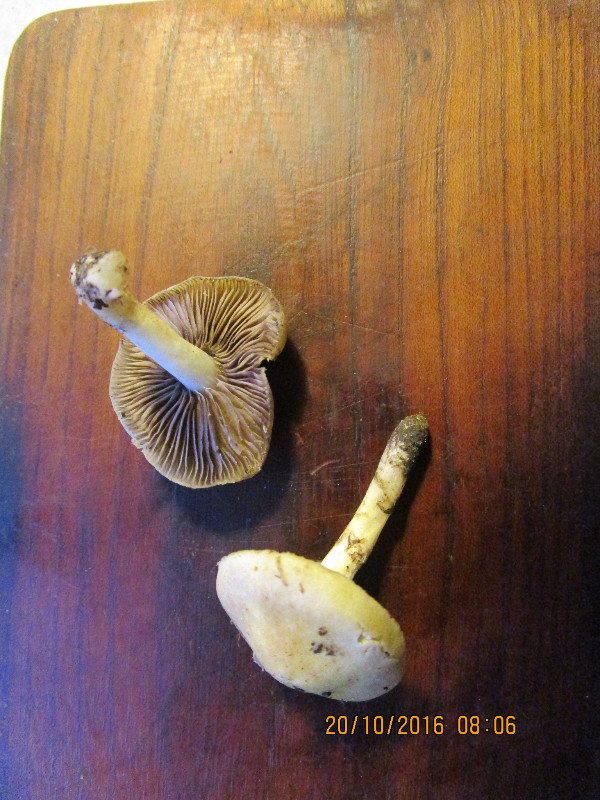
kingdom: Fungi
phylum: Basidiomycota
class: Agaricomycetes
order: Agaricales
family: Strophariaceae
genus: Pholiota
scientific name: Pholiota gummosa
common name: grøngul skælhat
